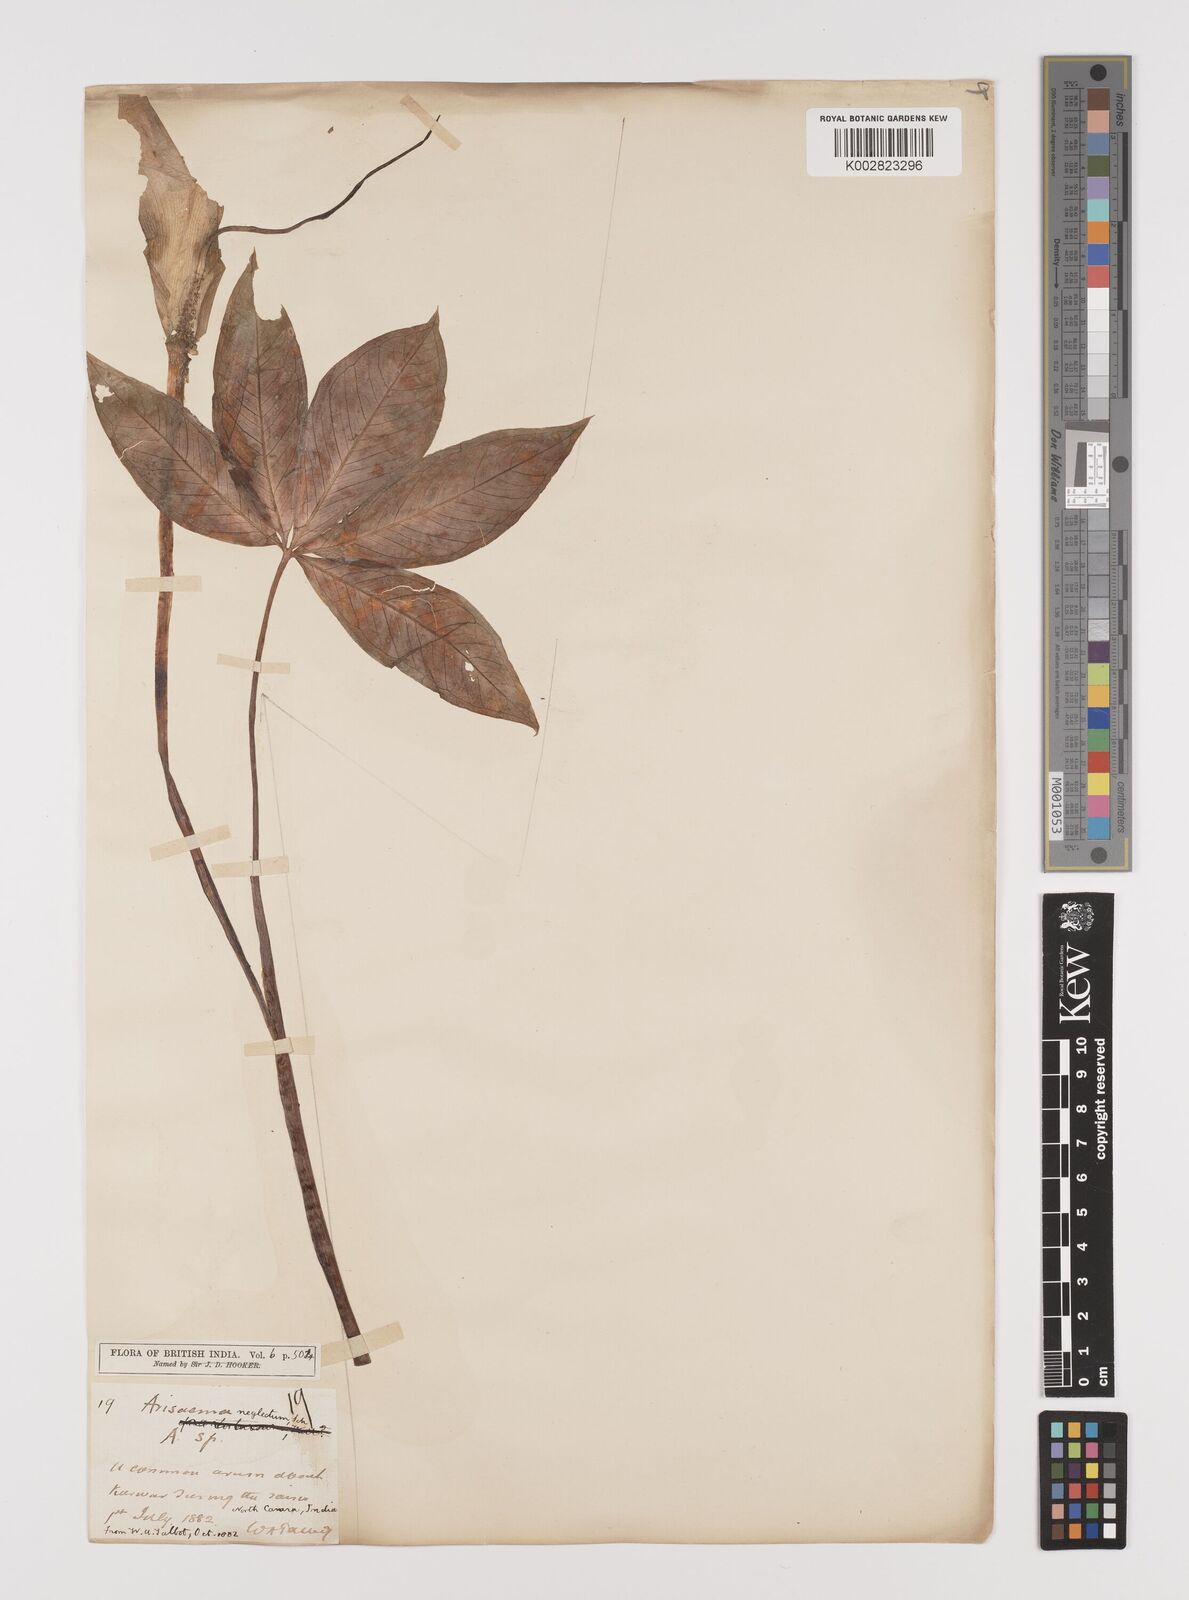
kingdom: Plantae
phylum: Tracheophyta
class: Liliopsida
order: Alismatales
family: Araceae
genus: Arisaema
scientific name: Arisaema tortuosum
